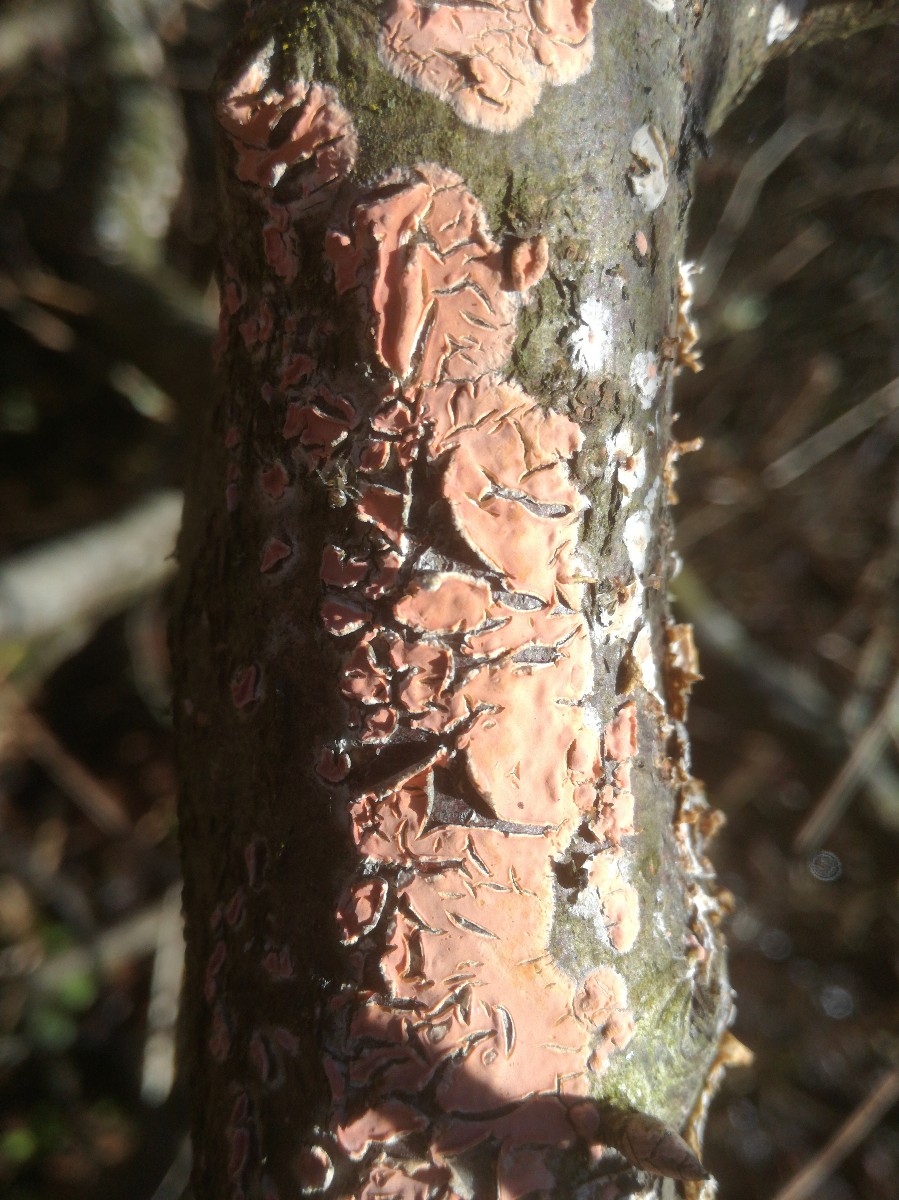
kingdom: Fungi
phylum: Basidiomycota
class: Agaricomycetes
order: Russulales
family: Peniophoraceae
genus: Peniophora
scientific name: Peniophora incarnata
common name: laksefarvet voksskind
